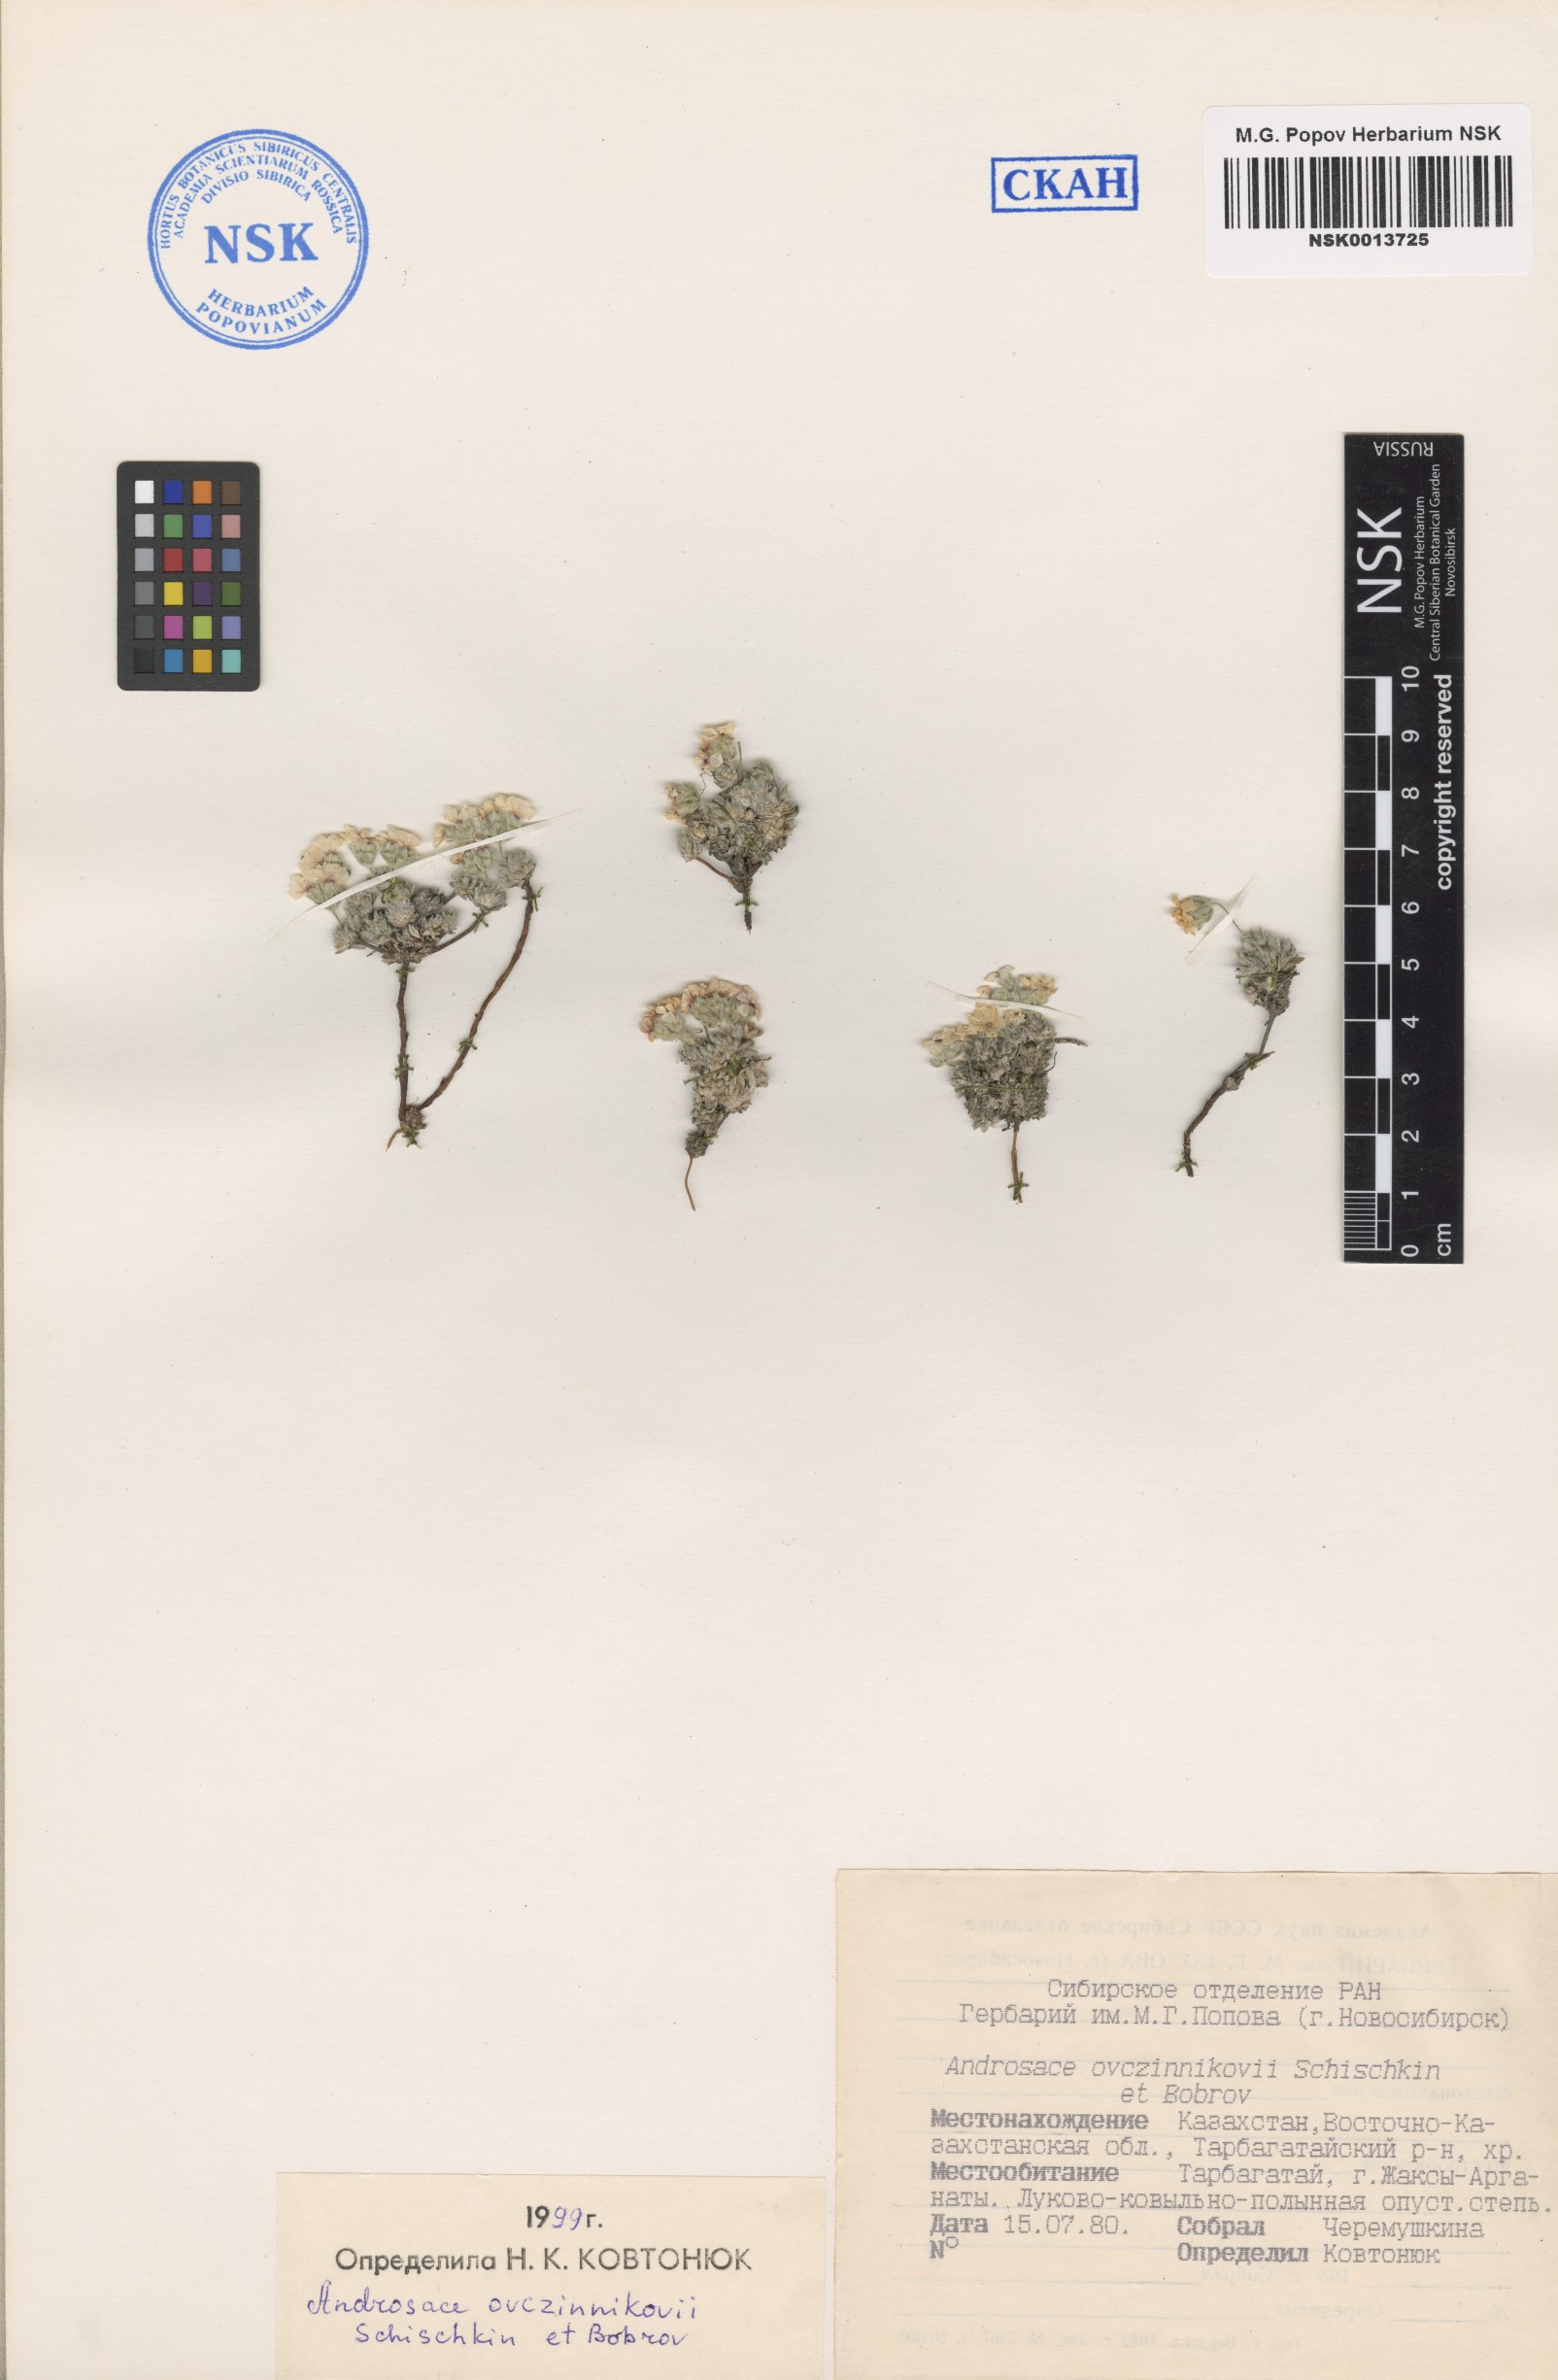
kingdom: Plantae
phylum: Tracheophyta
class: Magnoliopsida
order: Ericales
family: Primulaceae
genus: Androsace
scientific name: Androsace ovczinnikovii
